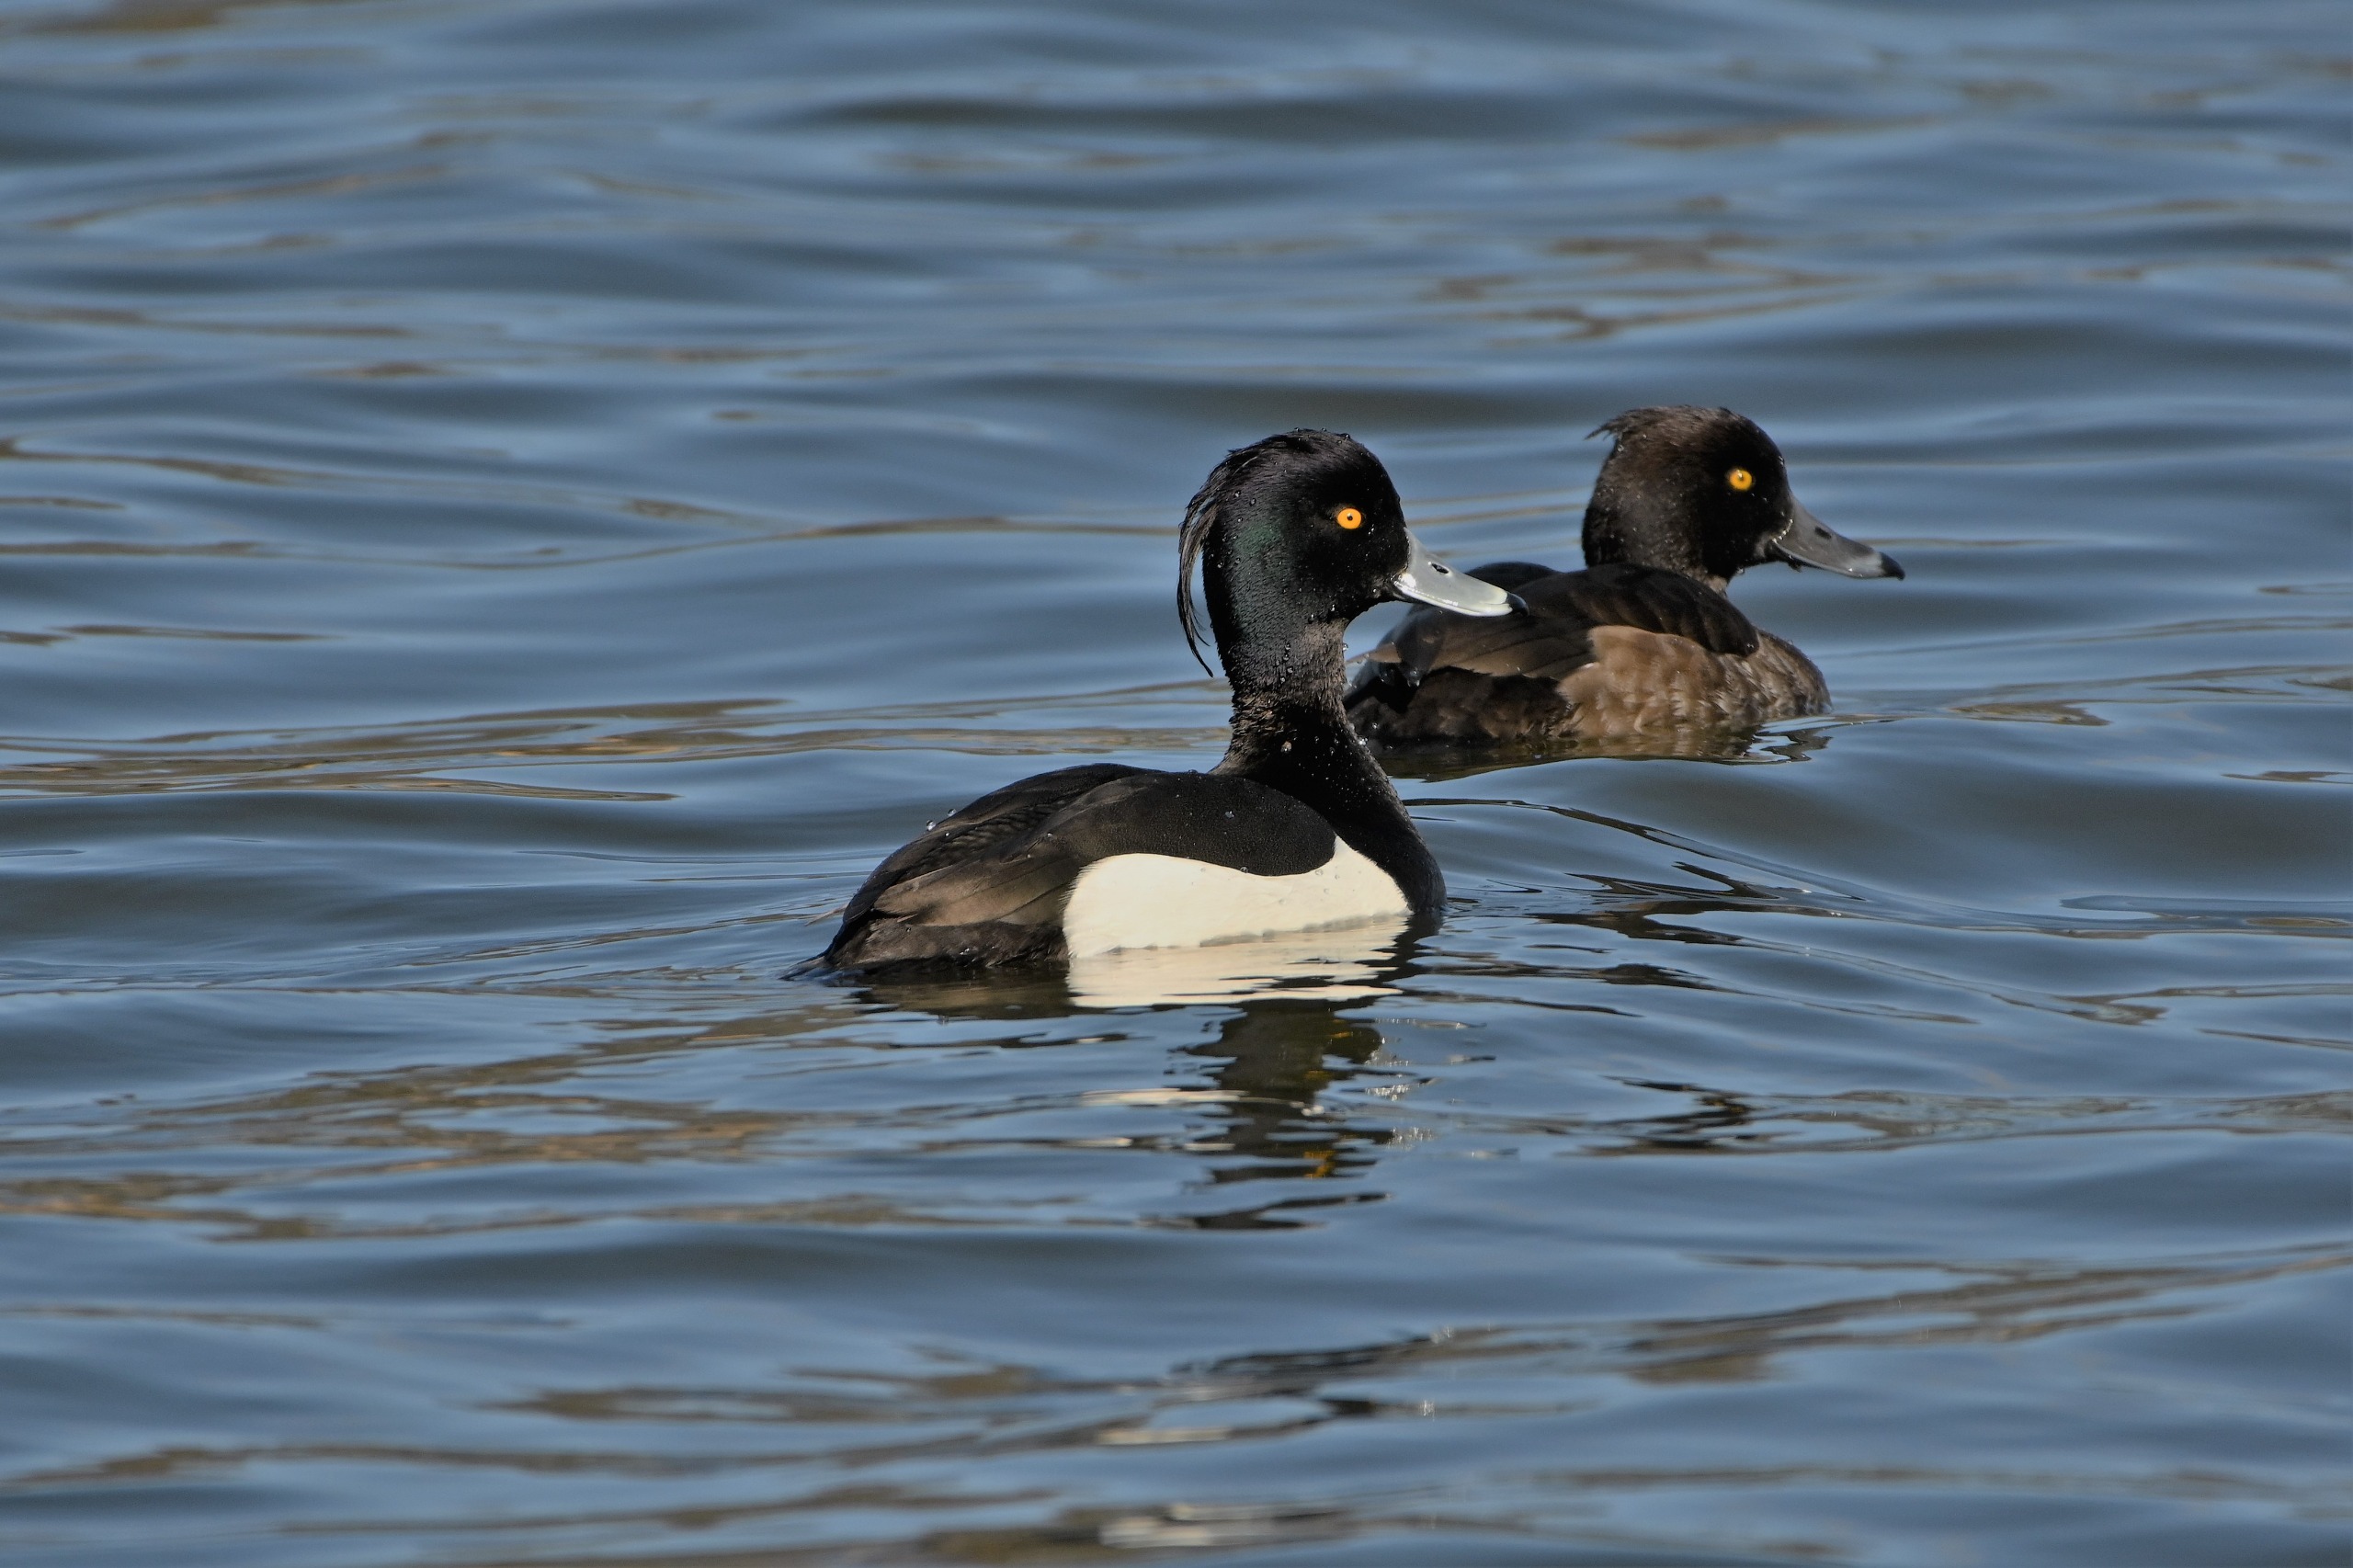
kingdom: Animalia
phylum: Chordata
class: Aves
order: Anseriformes
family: Anatidae
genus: Aythya
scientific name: Aythya fuligula
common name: Troldand
